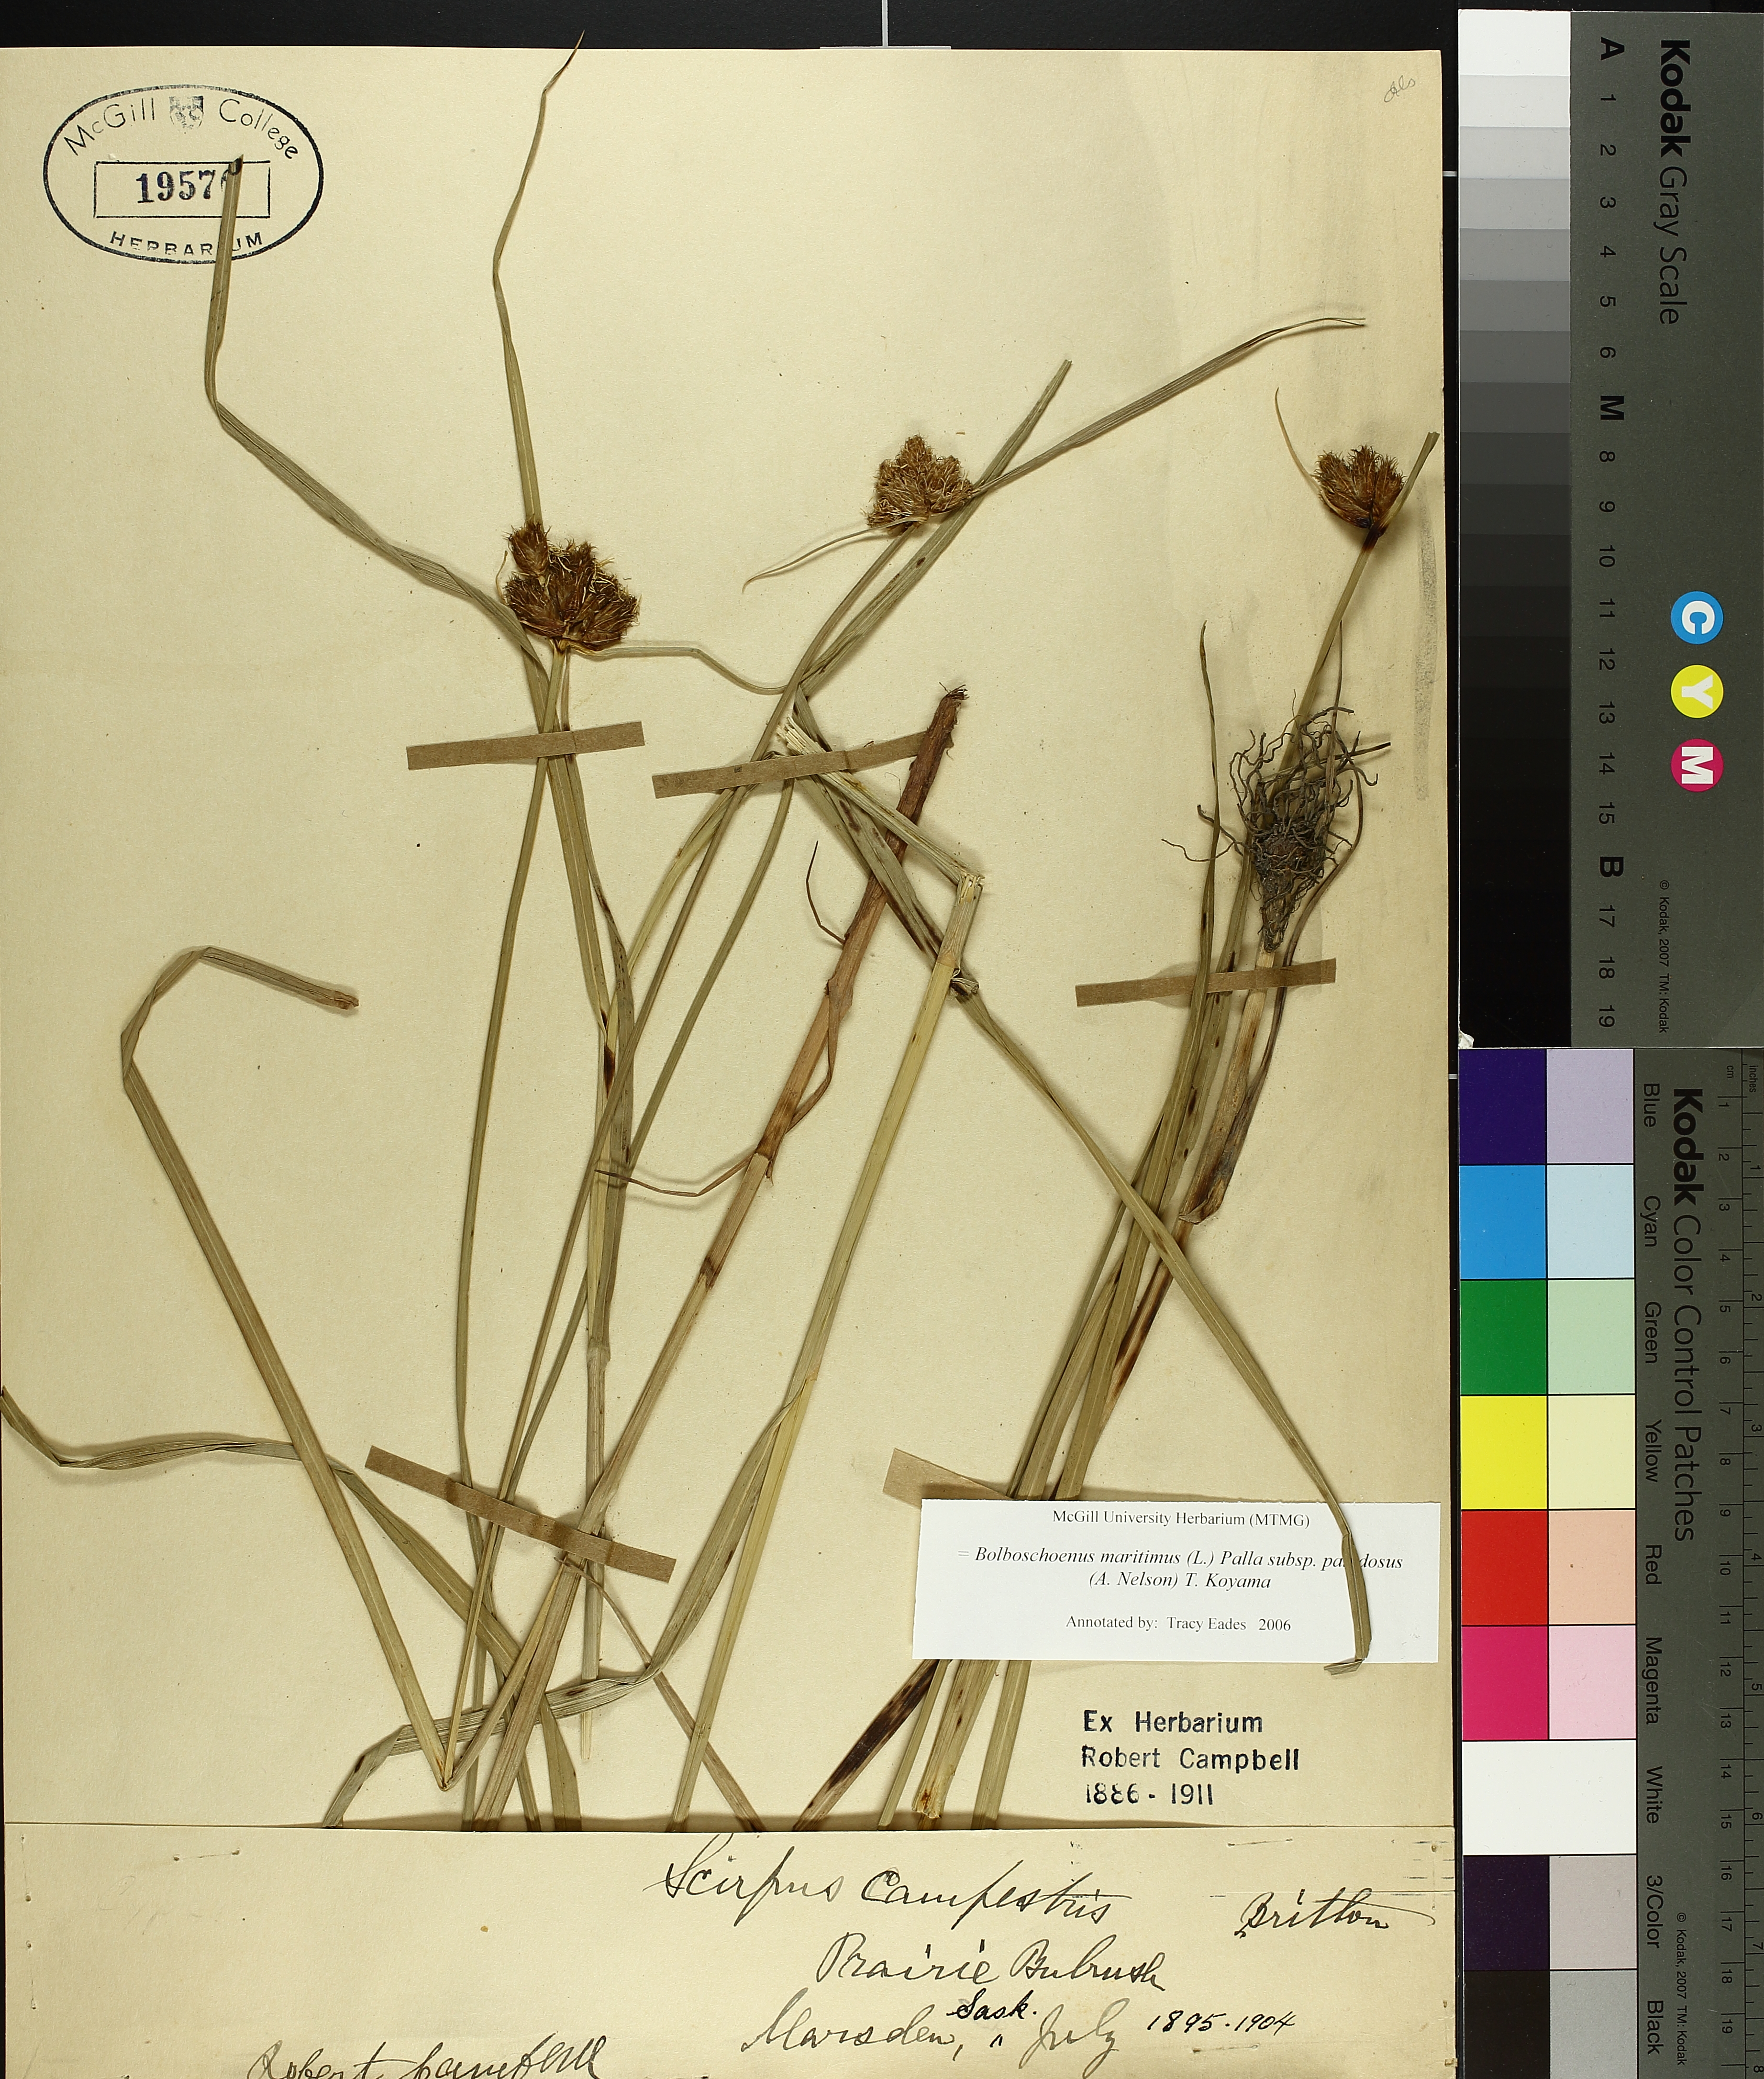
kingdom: Plantae
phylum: Tracheophyta
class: Liliopsida
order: Poales
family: Cyperaceae
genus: Bolboschoenus
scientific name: Bolboschoenus maritimus
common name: Sea club-rush
